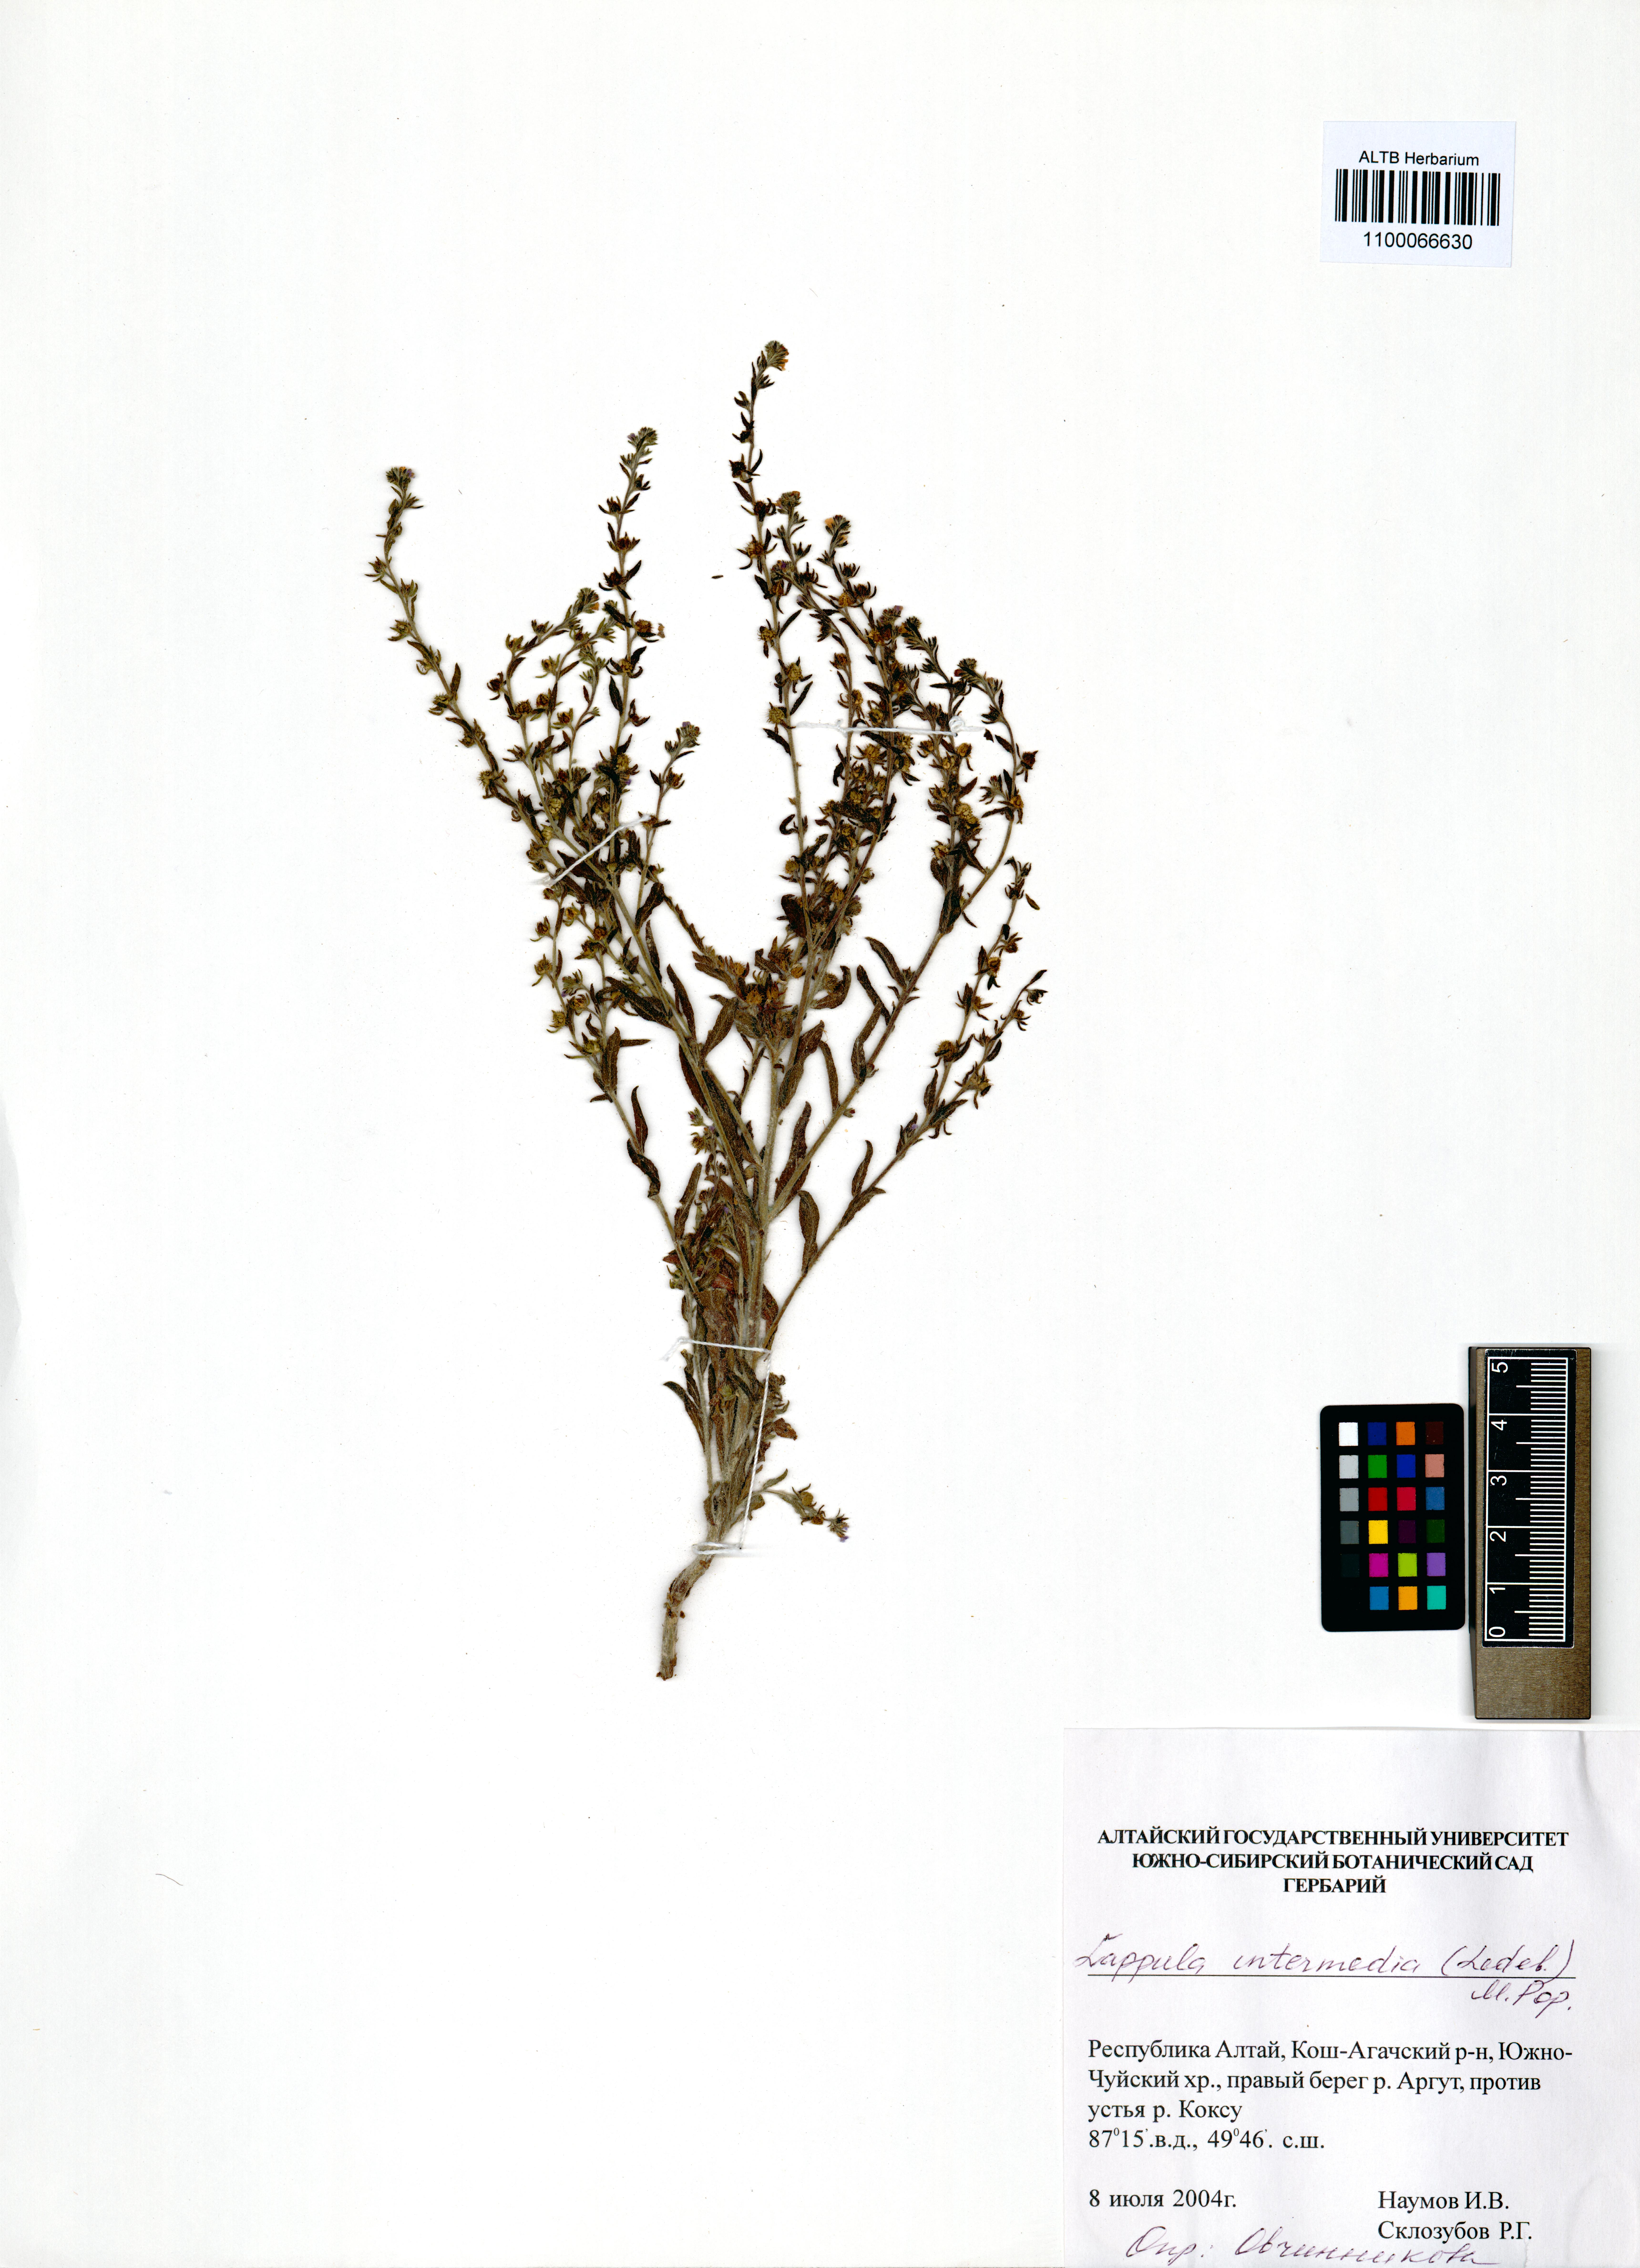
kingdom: Plantae
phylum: Tracheophyta
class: Magnoliopsida
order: Boraginales
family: Boraginaceae
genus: Lappula
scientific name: Lappula intermedia
